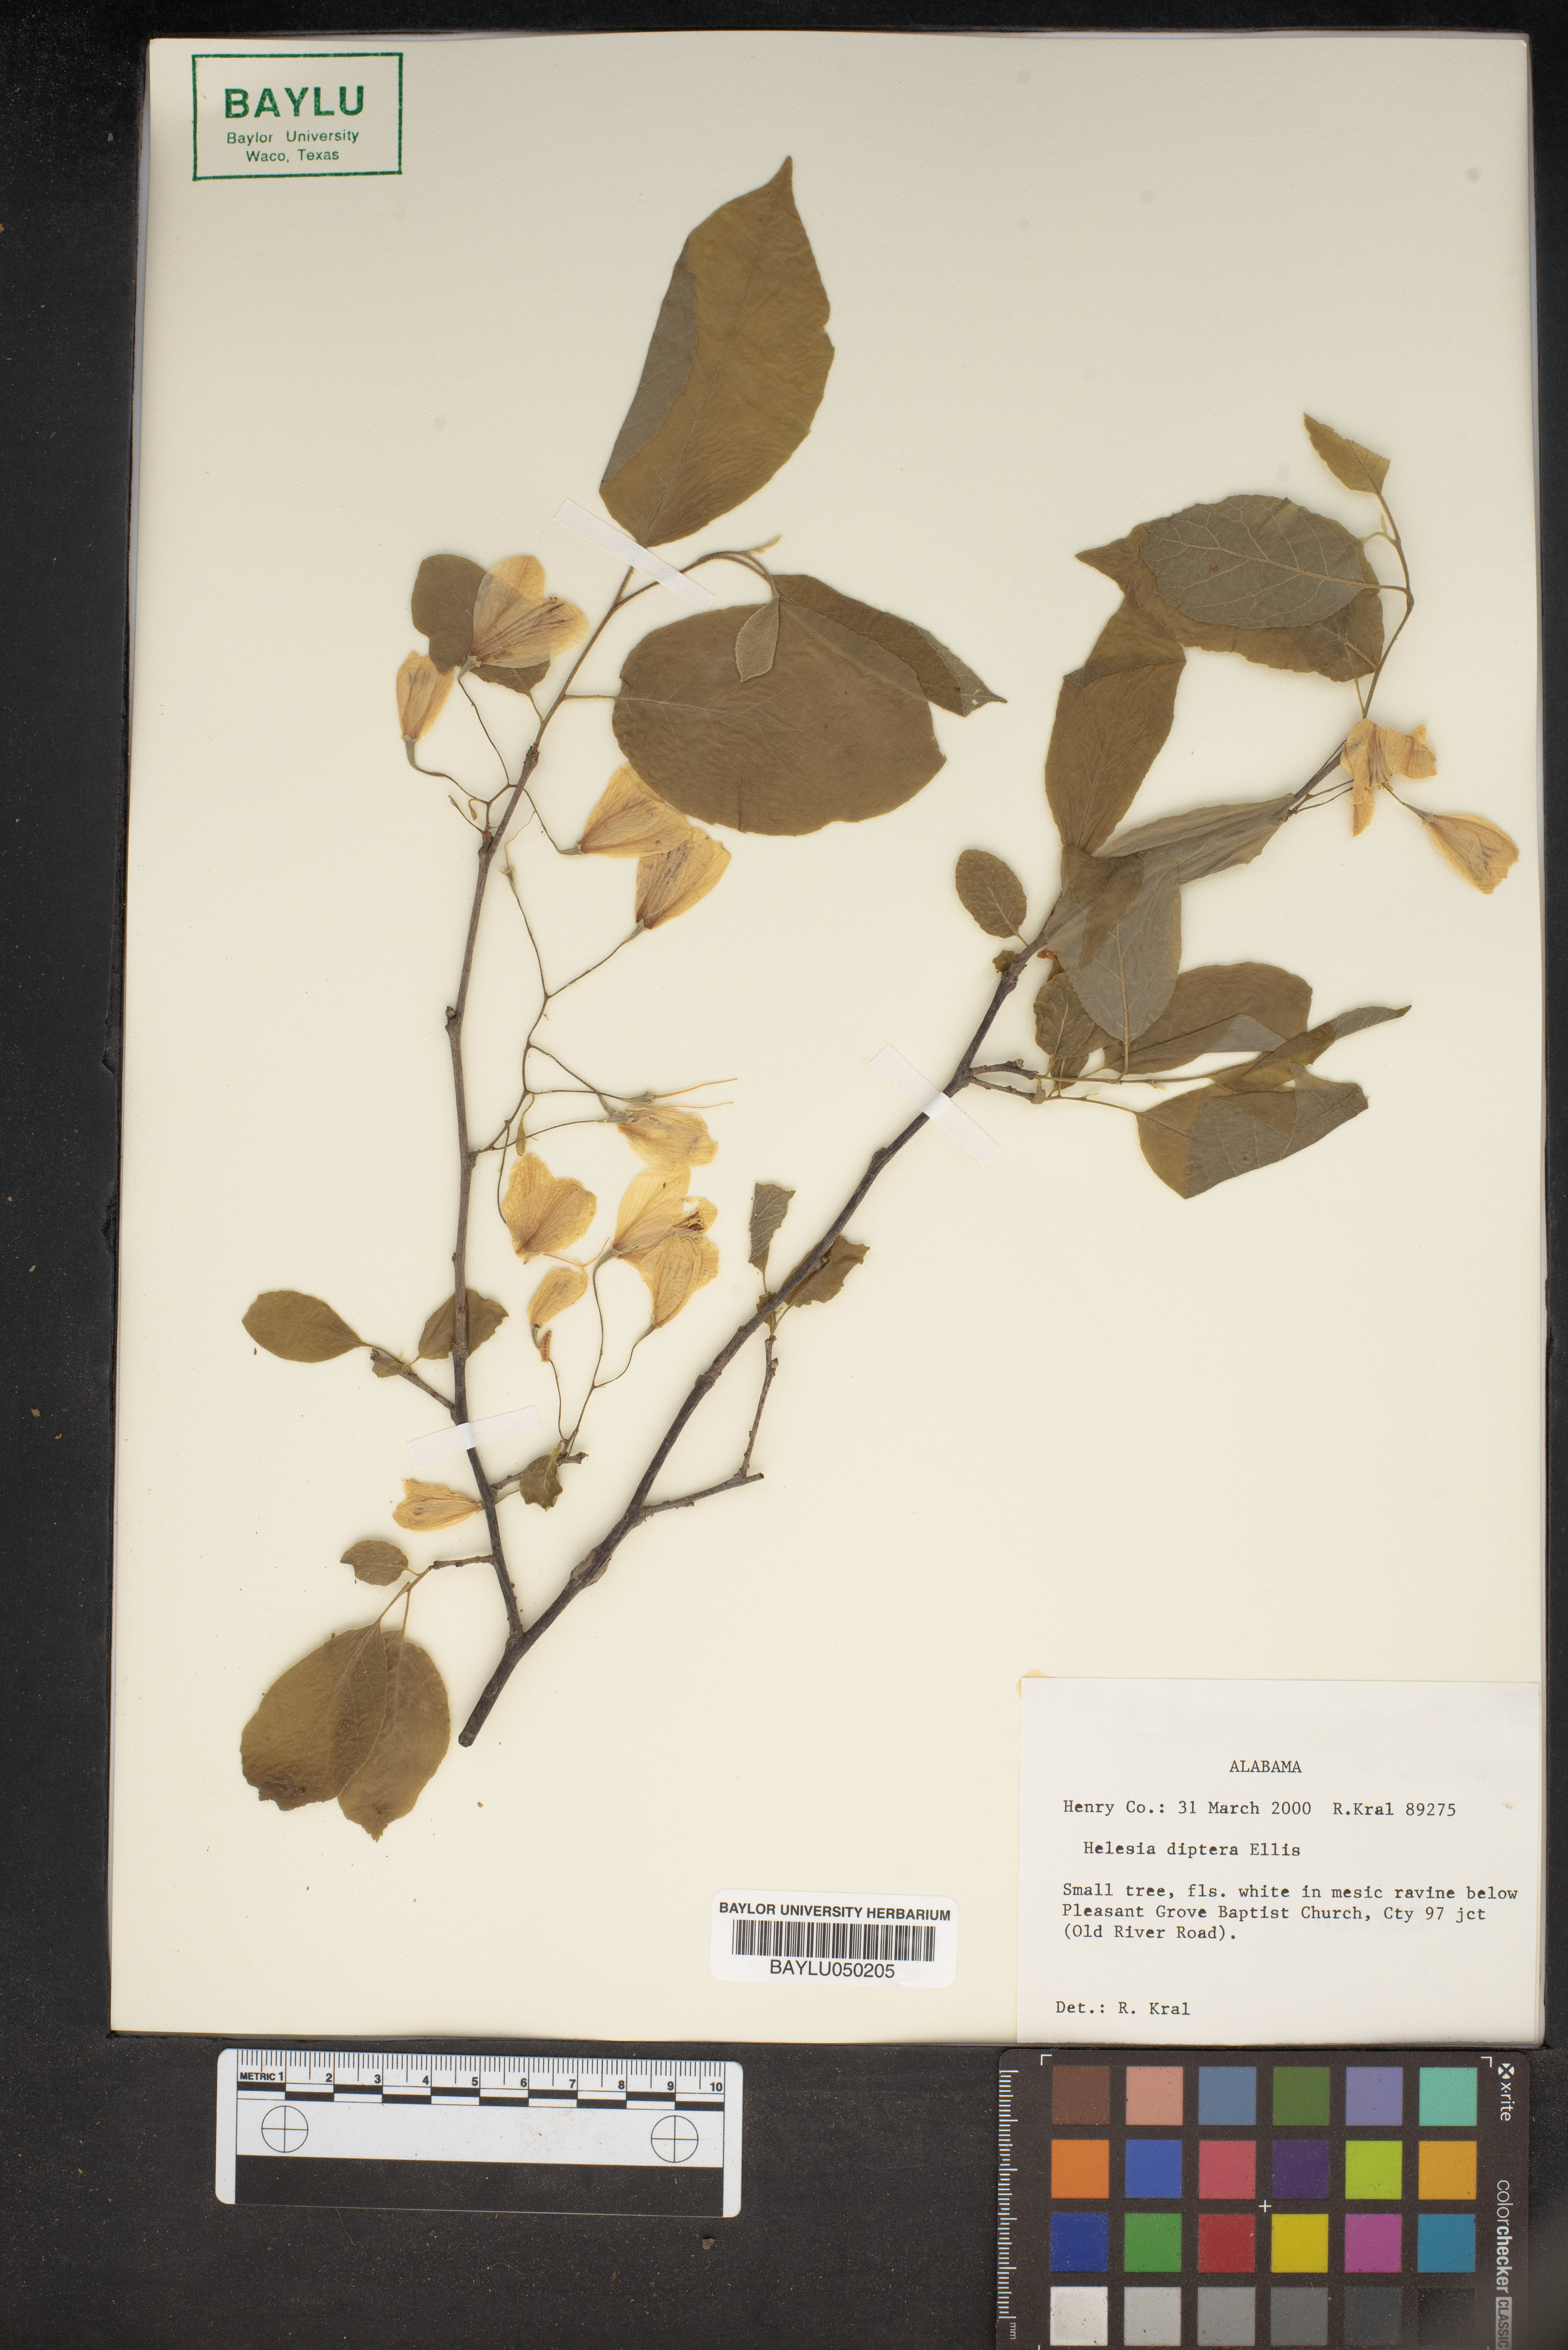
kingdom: Plantae
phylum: Tracheophyta
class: Magnoliopsida
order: Ericales
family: Styracaceae
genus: Halesia
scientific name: Halesia diptera
